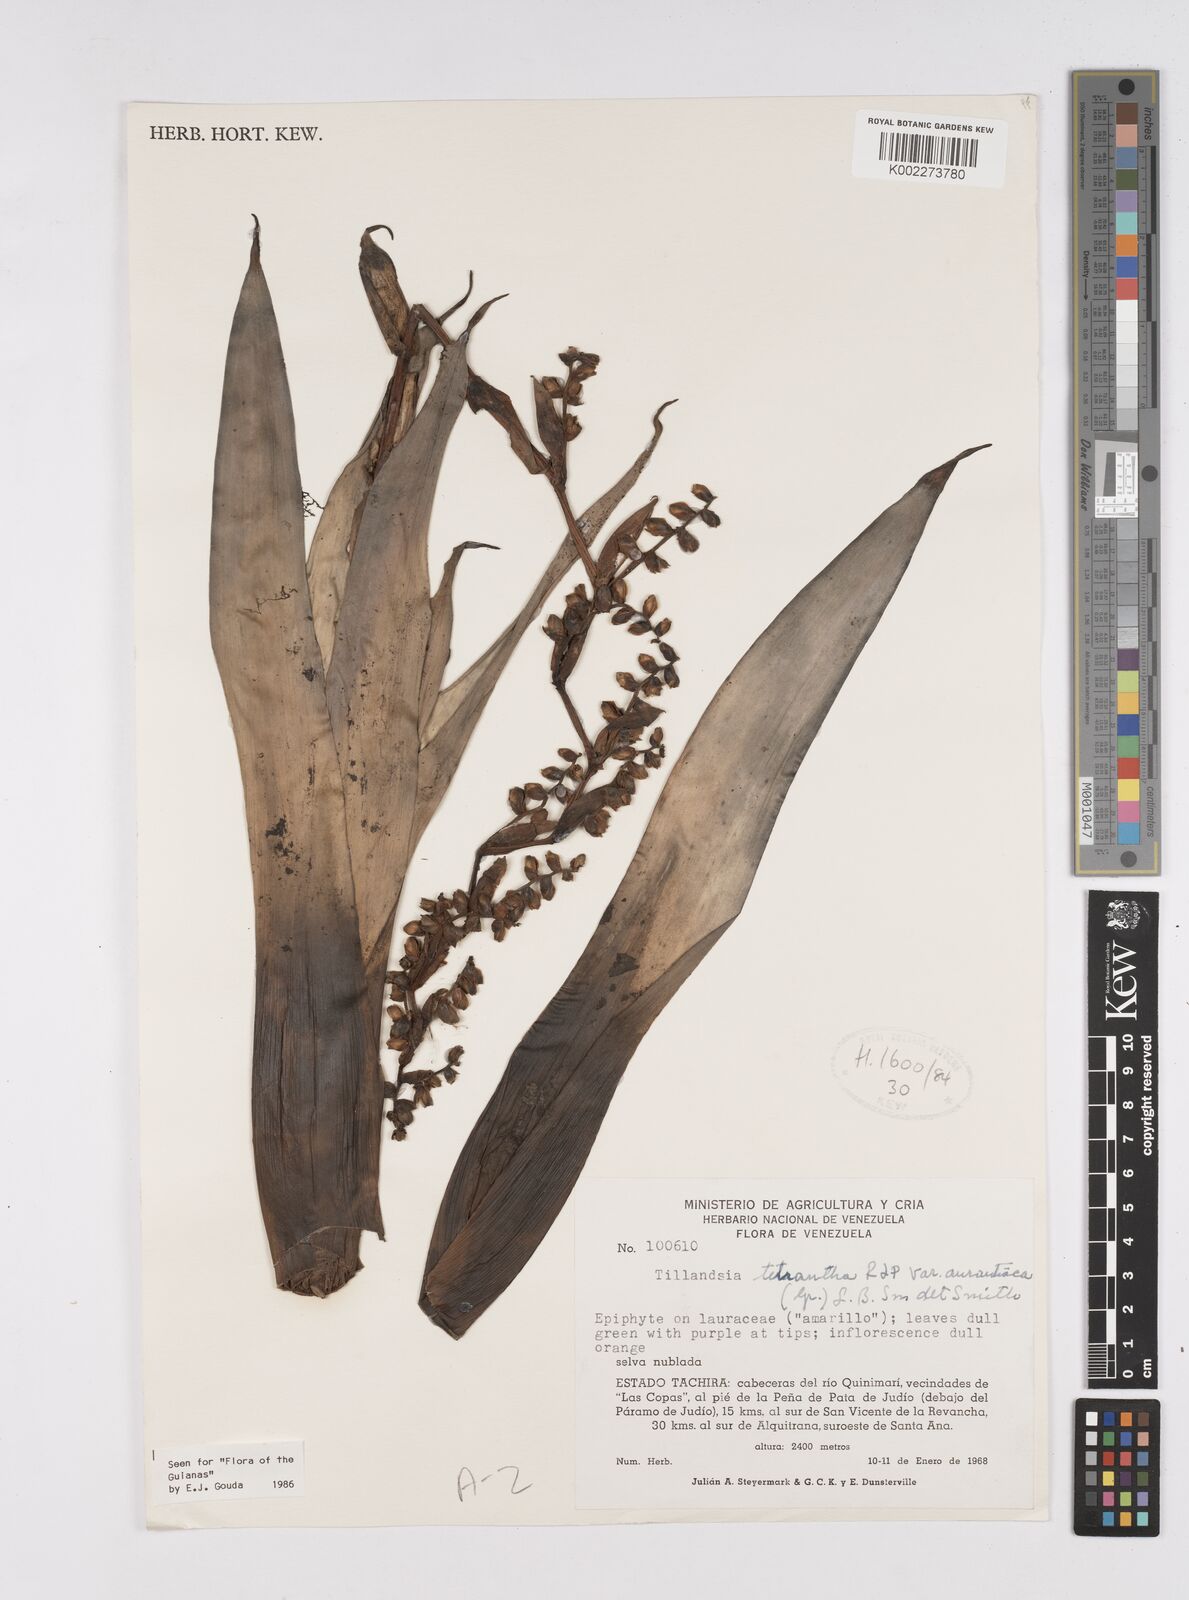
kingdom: Plantae
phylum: Tracheophyta
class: Liliopsida
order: Poales
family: Bromeliaceae
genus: Racinaea
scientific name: Racinaea tetrantha
